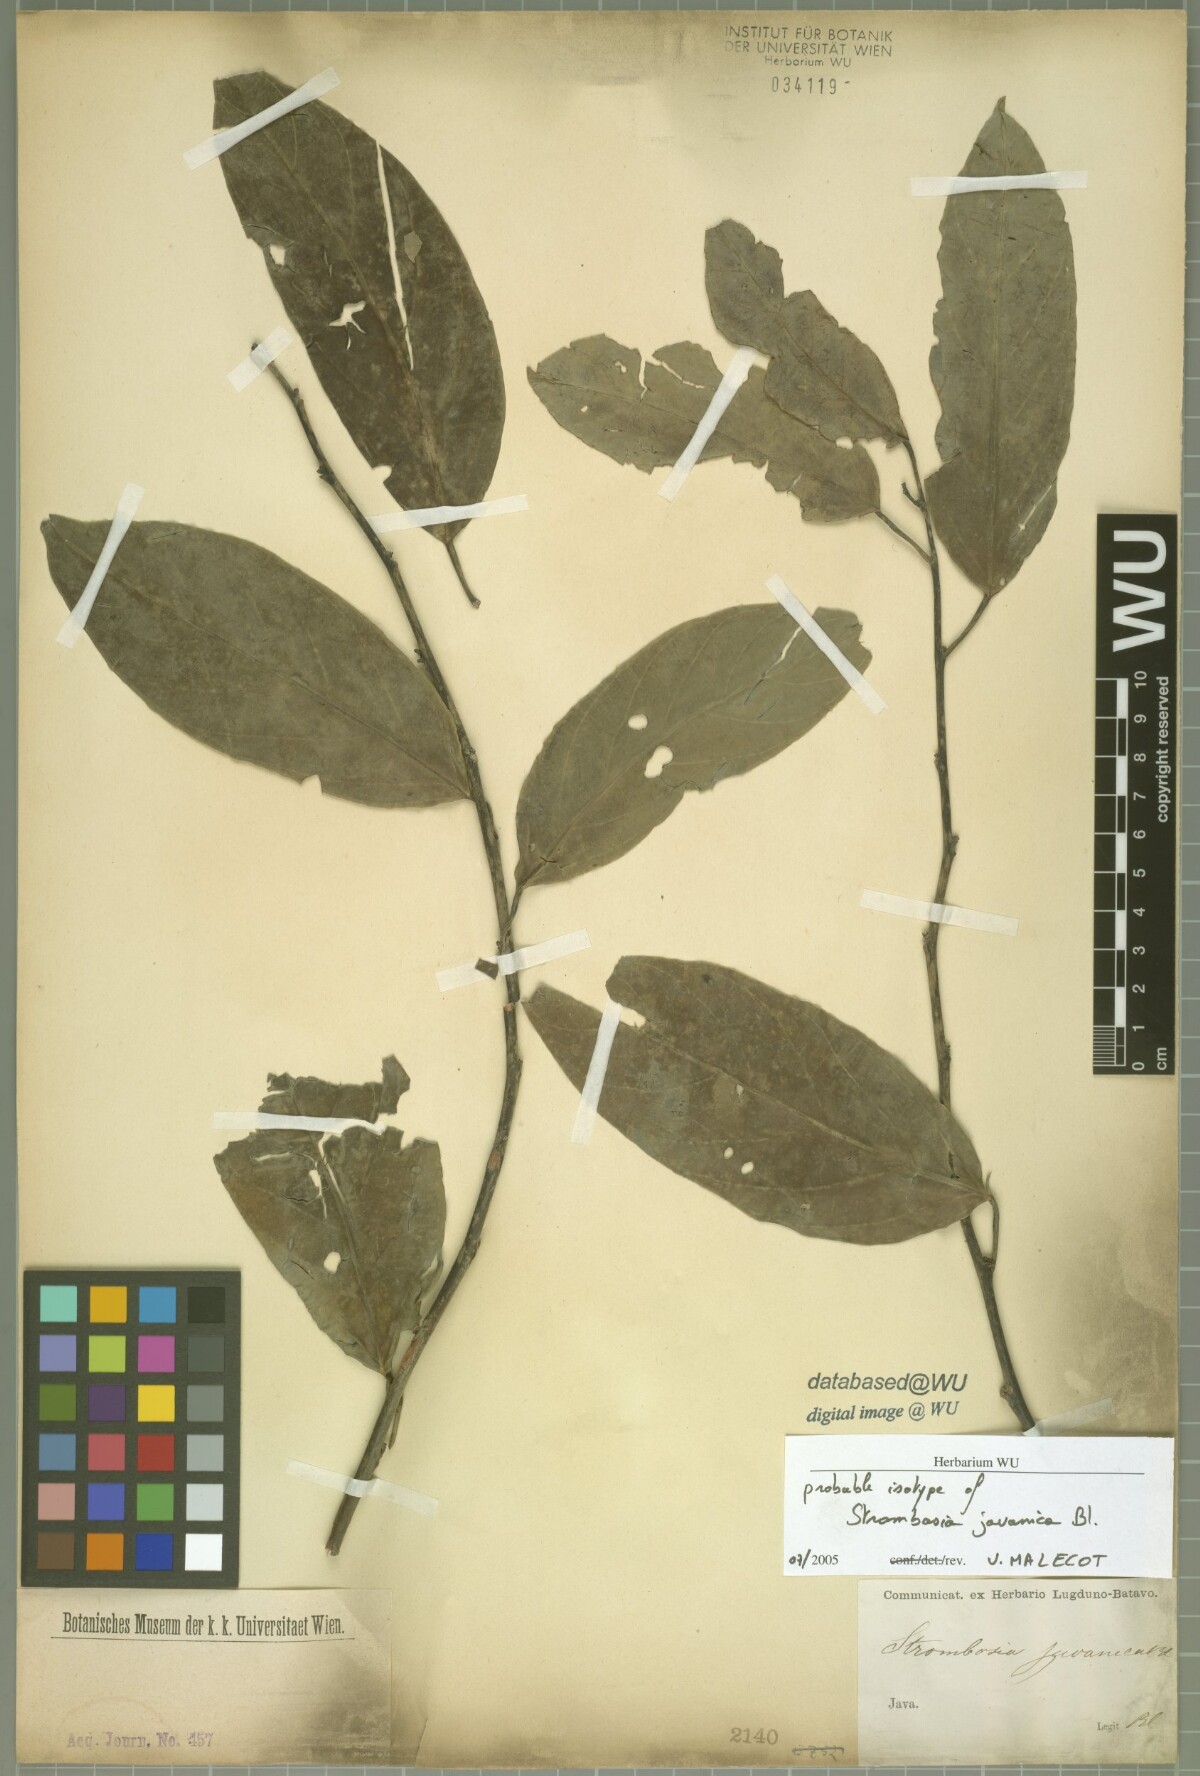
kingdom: Plantae
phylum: Tracheophyta
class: Magnoliopsida
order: Santalales
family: Strombosiaceae
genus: Strombosia
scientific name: Strombosia javanica
